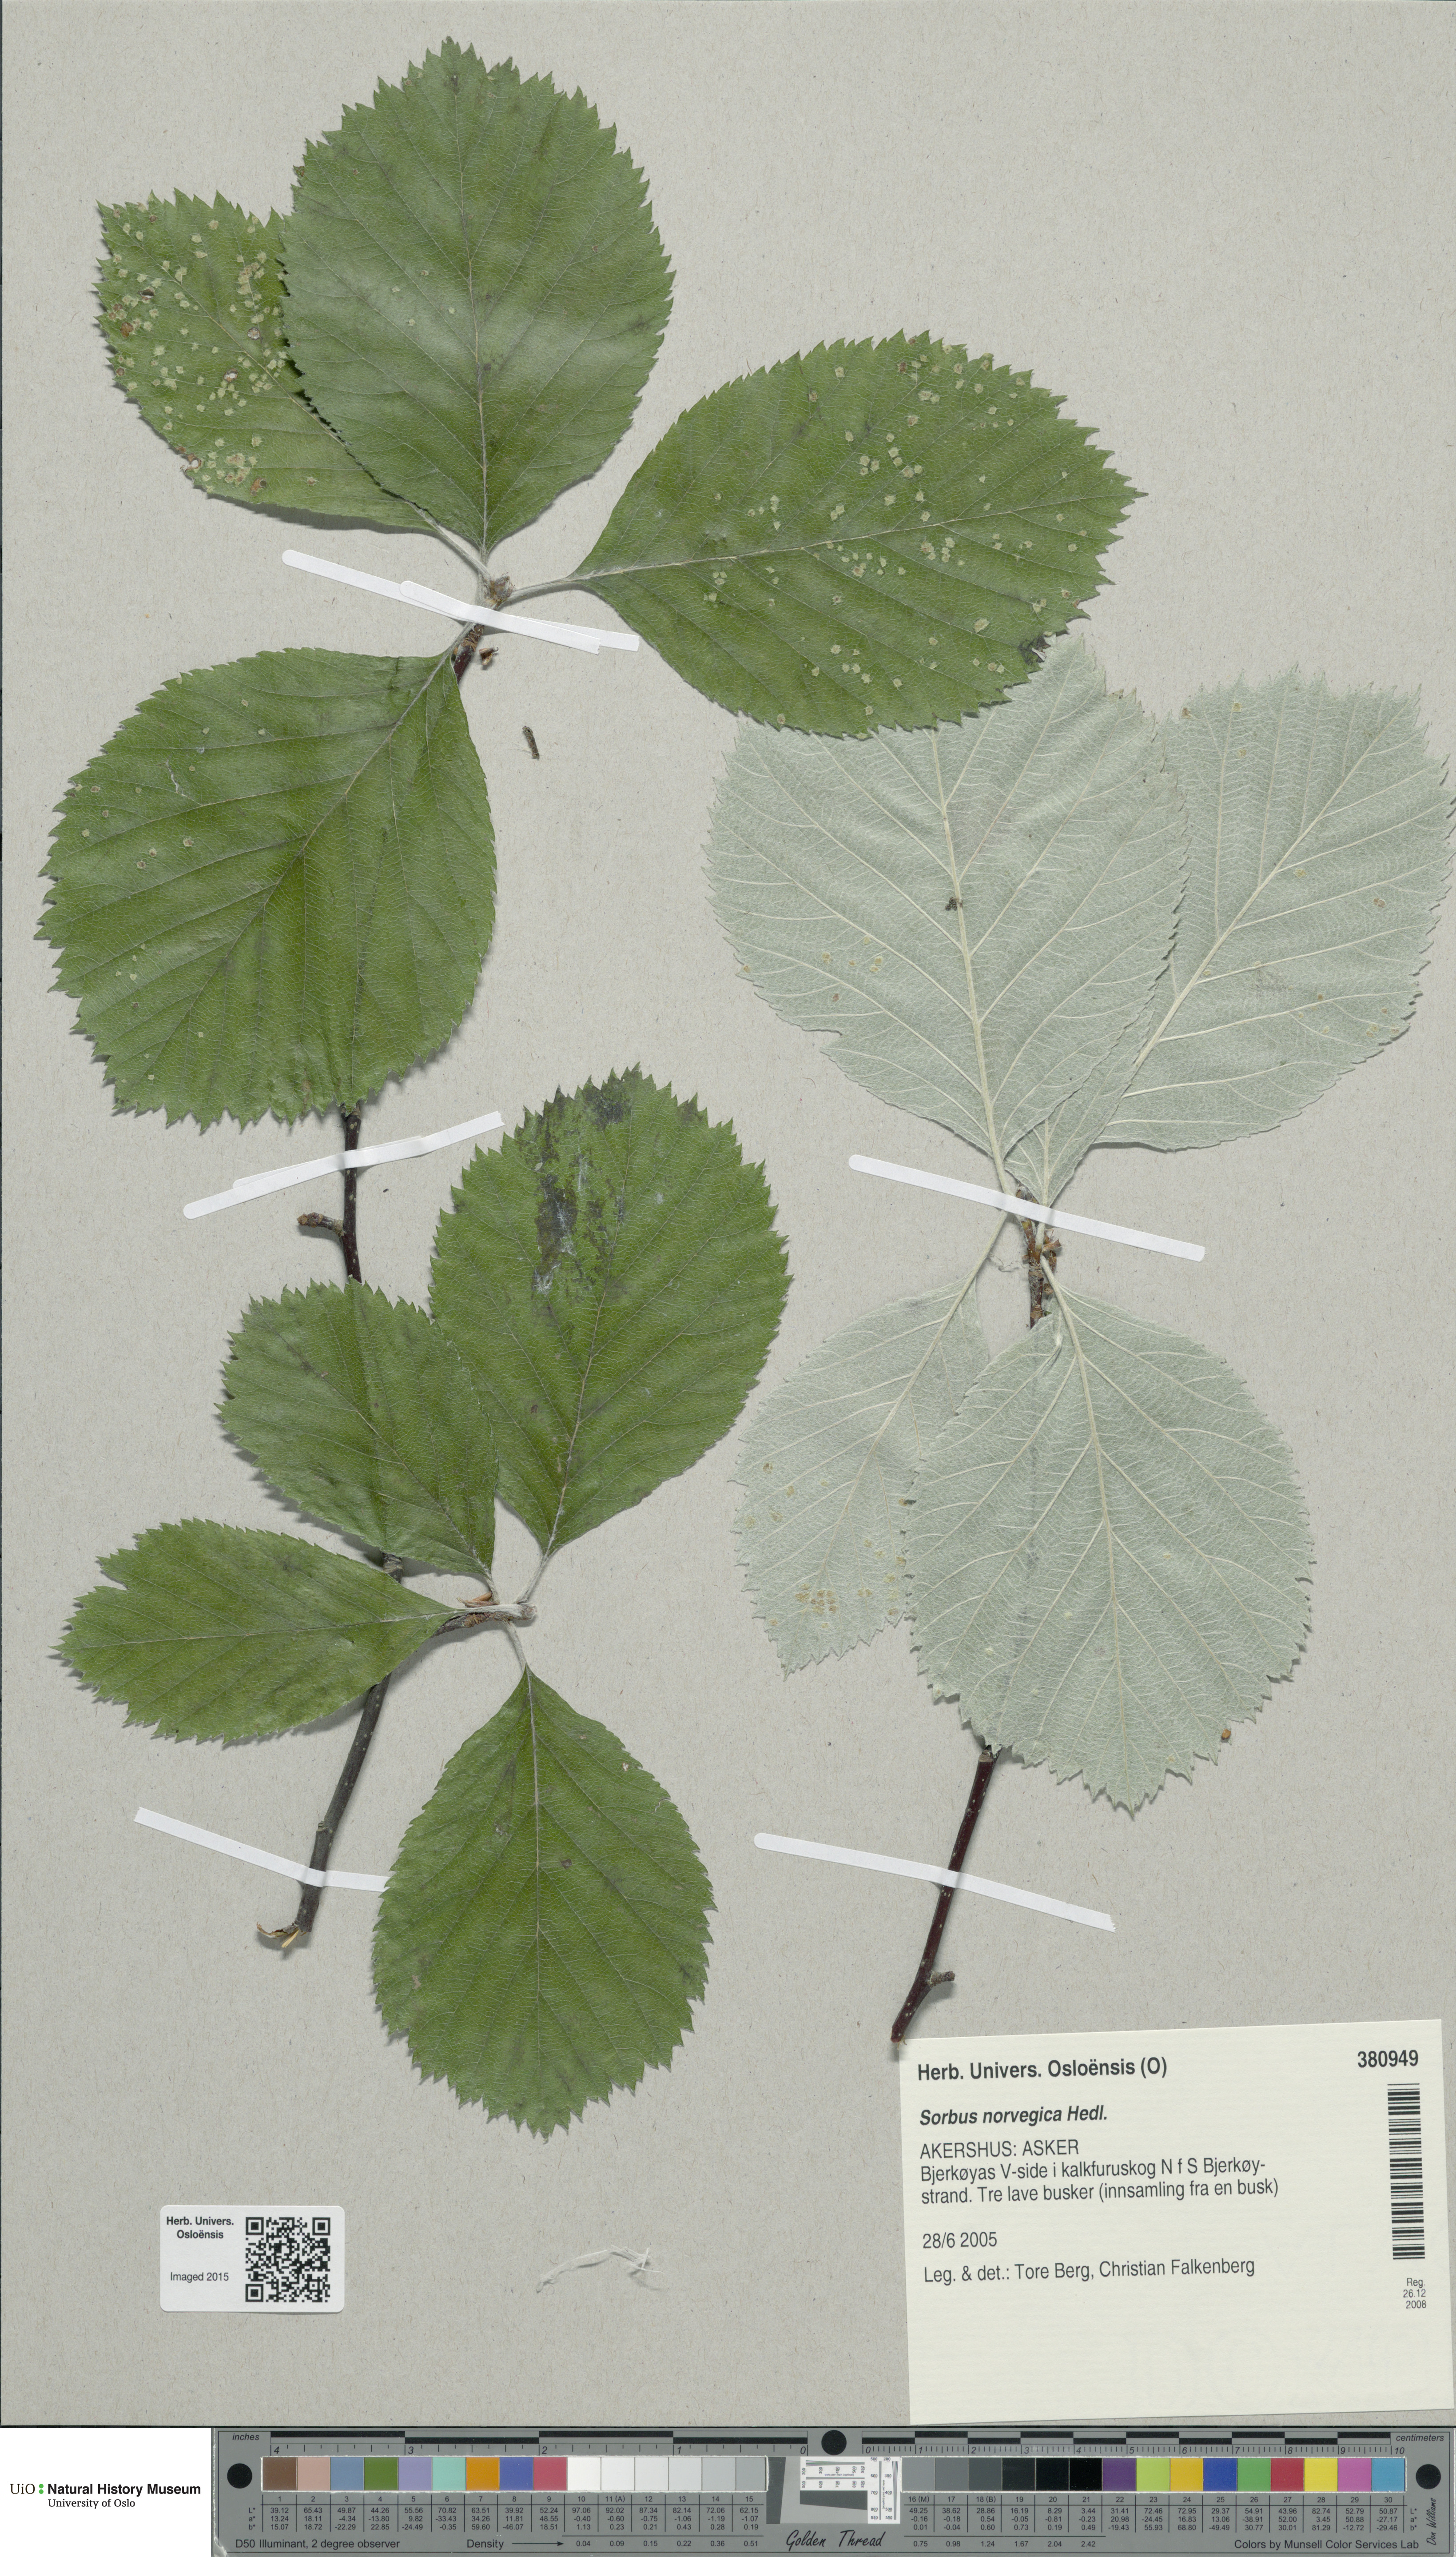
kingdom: Plantae
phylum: Tracheophyta
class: Magnoliopsida
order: Rosales
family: Rosaceae
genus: Aria
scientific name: Aria obtusifolia
